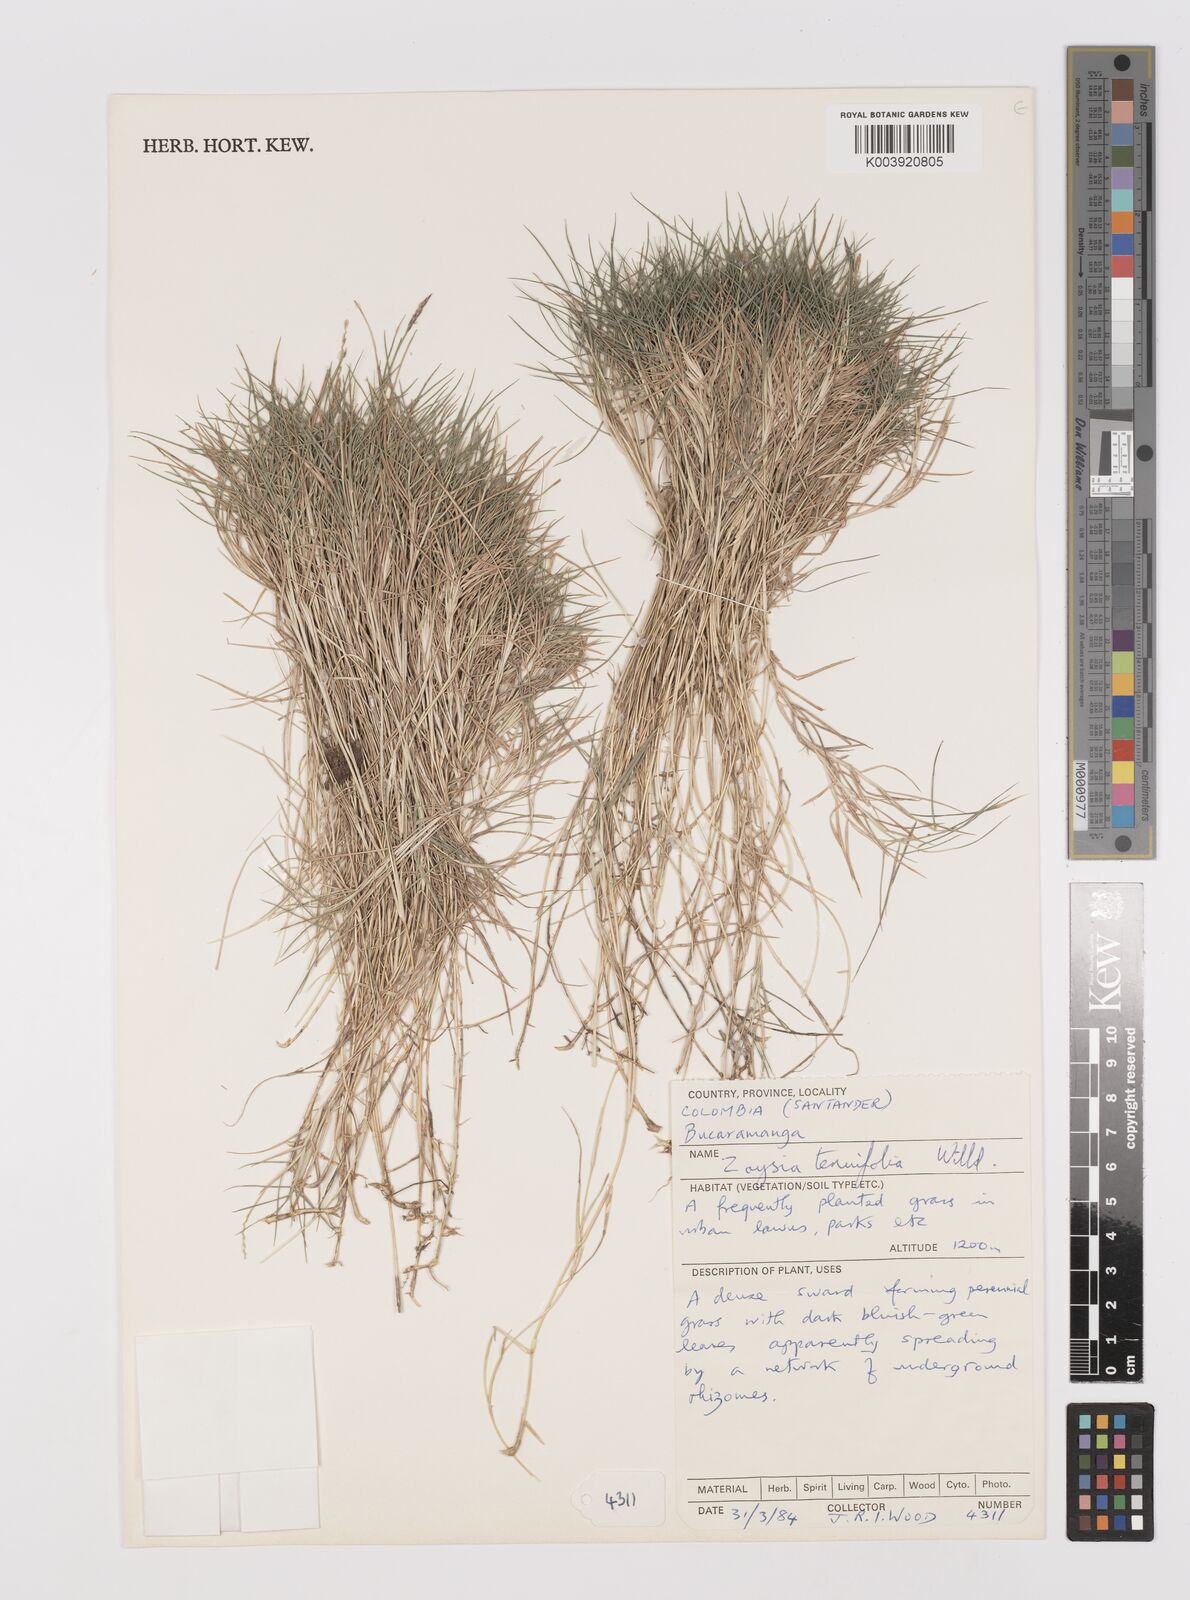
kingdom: Plantae
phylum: Tracheophyta
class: Liliopsida
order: Poales
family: Poaceae
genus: Zoysia
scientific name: Zoysia matrella
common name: Manila grass
